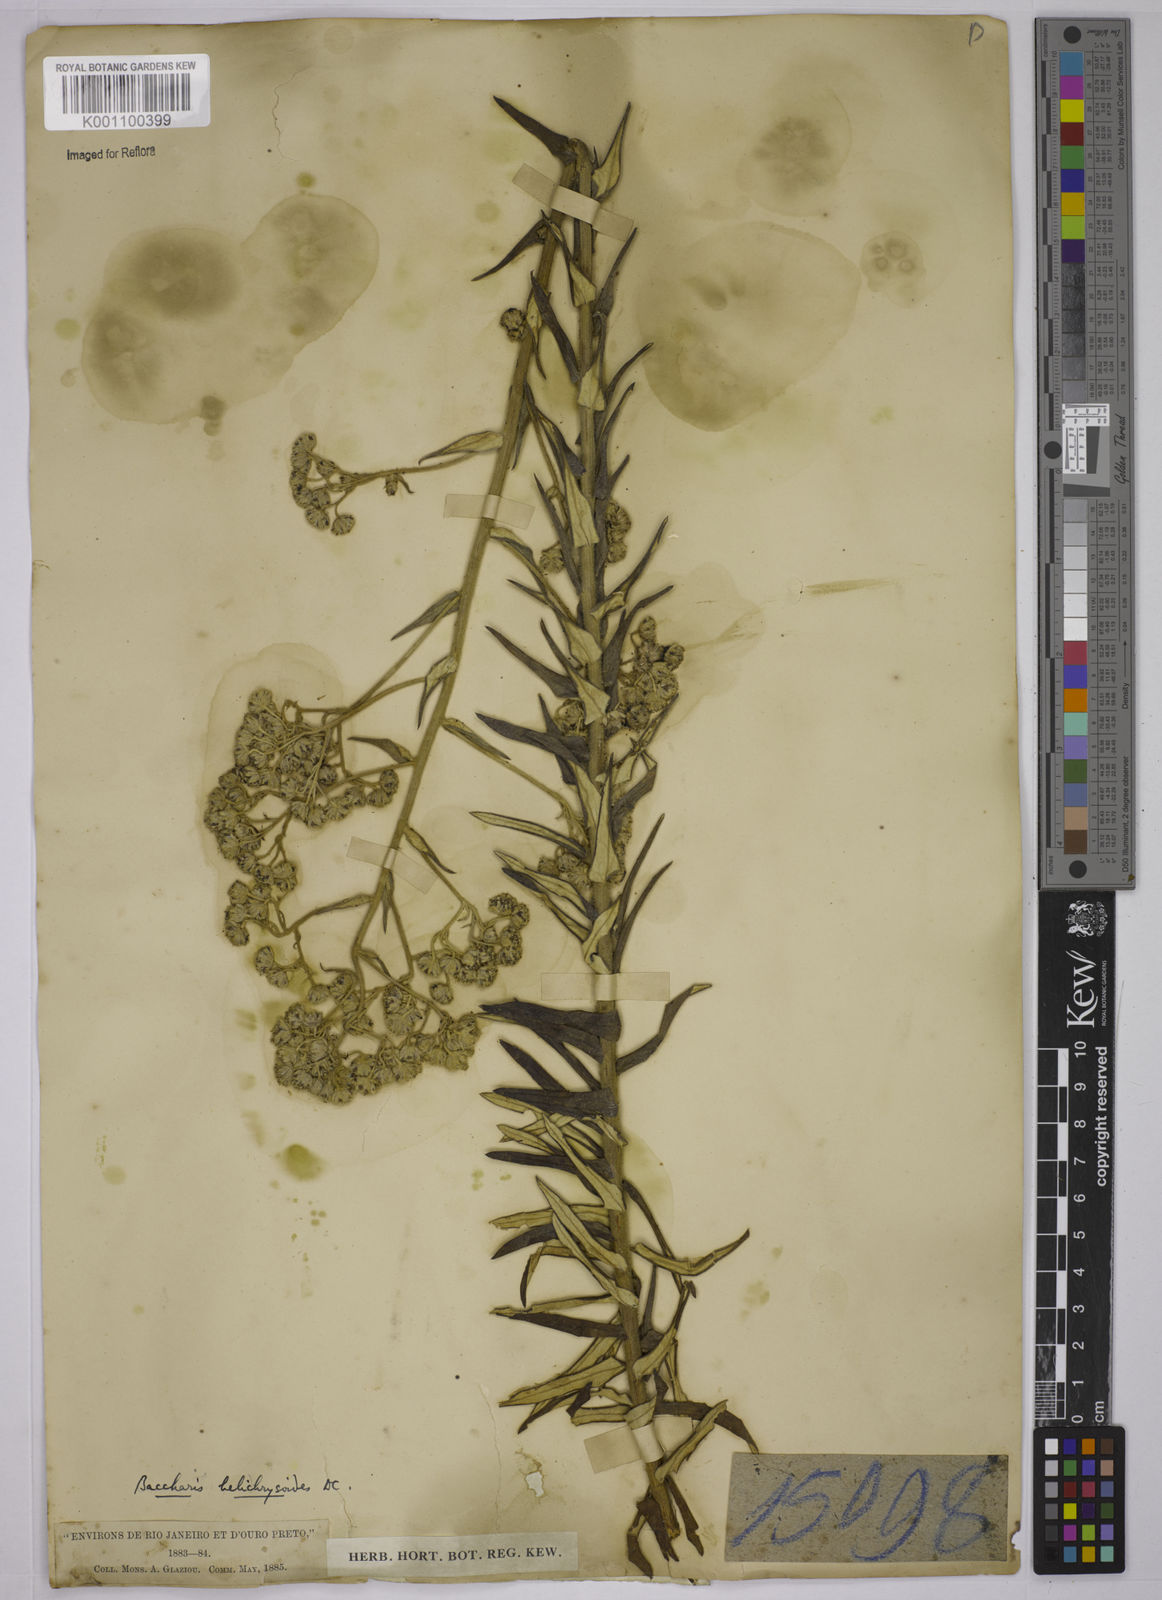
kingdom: Plantae
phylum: Tracheophyta
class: Magnoliopsida
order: Asterales
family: Asteraceae
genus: Baccharis
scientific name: Baccharis helichrysoides
